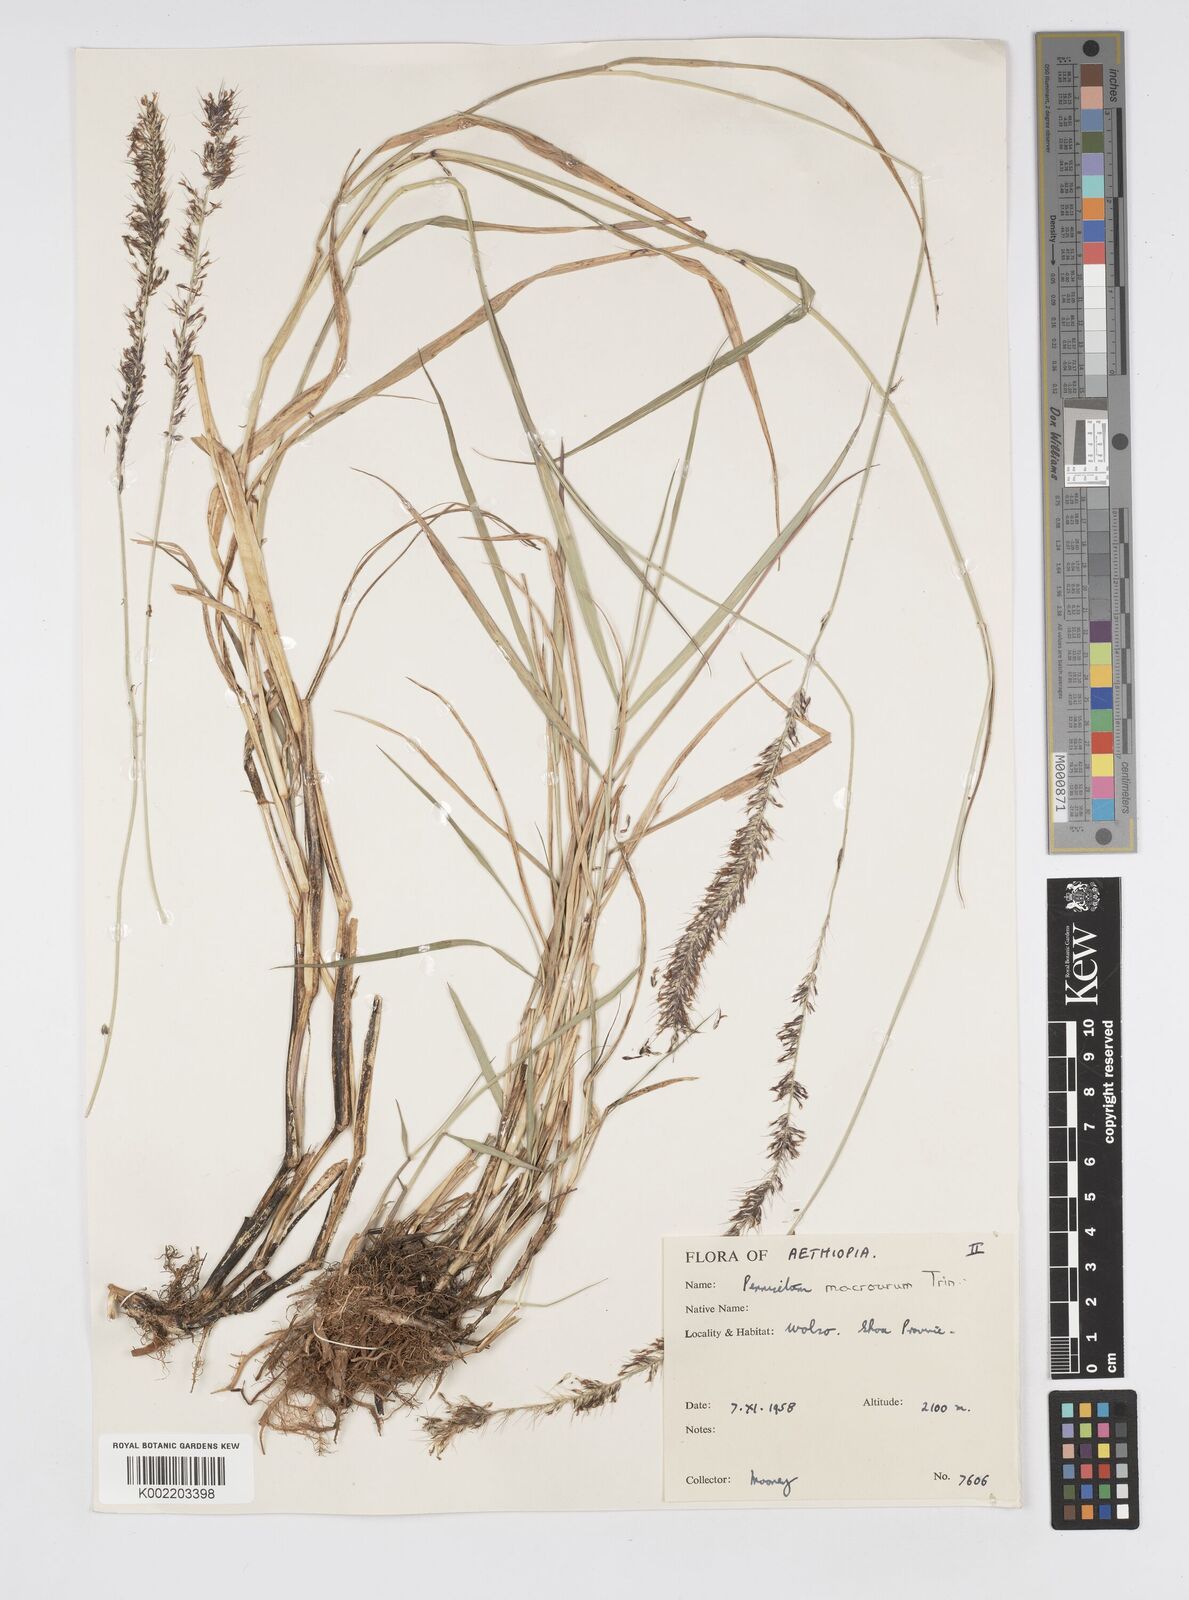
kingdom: Plantae
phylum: Tracheophyta
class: Liliopsida
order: Poales
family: Poaceae
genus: Cenchrus
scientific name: Cenchrus caudatus
